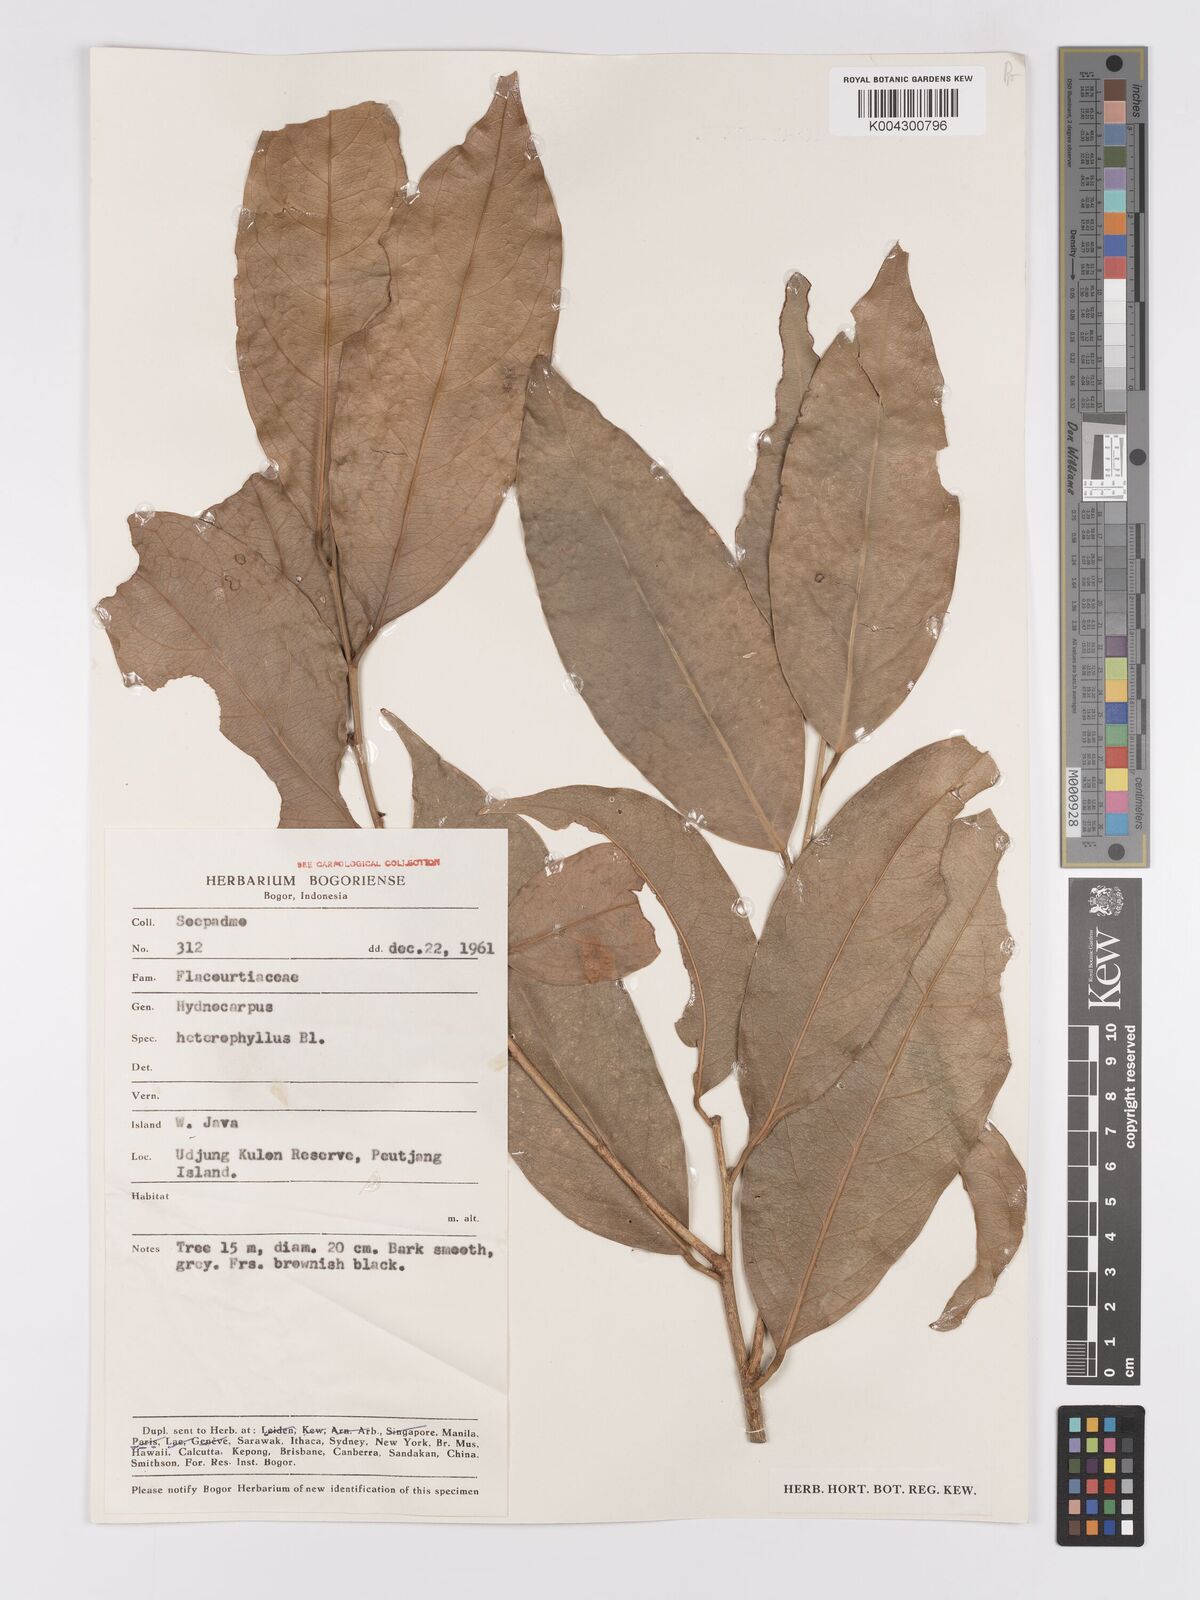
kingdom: Plantae
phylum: Tracheophyta
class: Magnoliopsida
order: Malpighiales
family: Achariaceae
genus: Hydnocarpus
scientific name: Hydnocarpus heterophyllus
